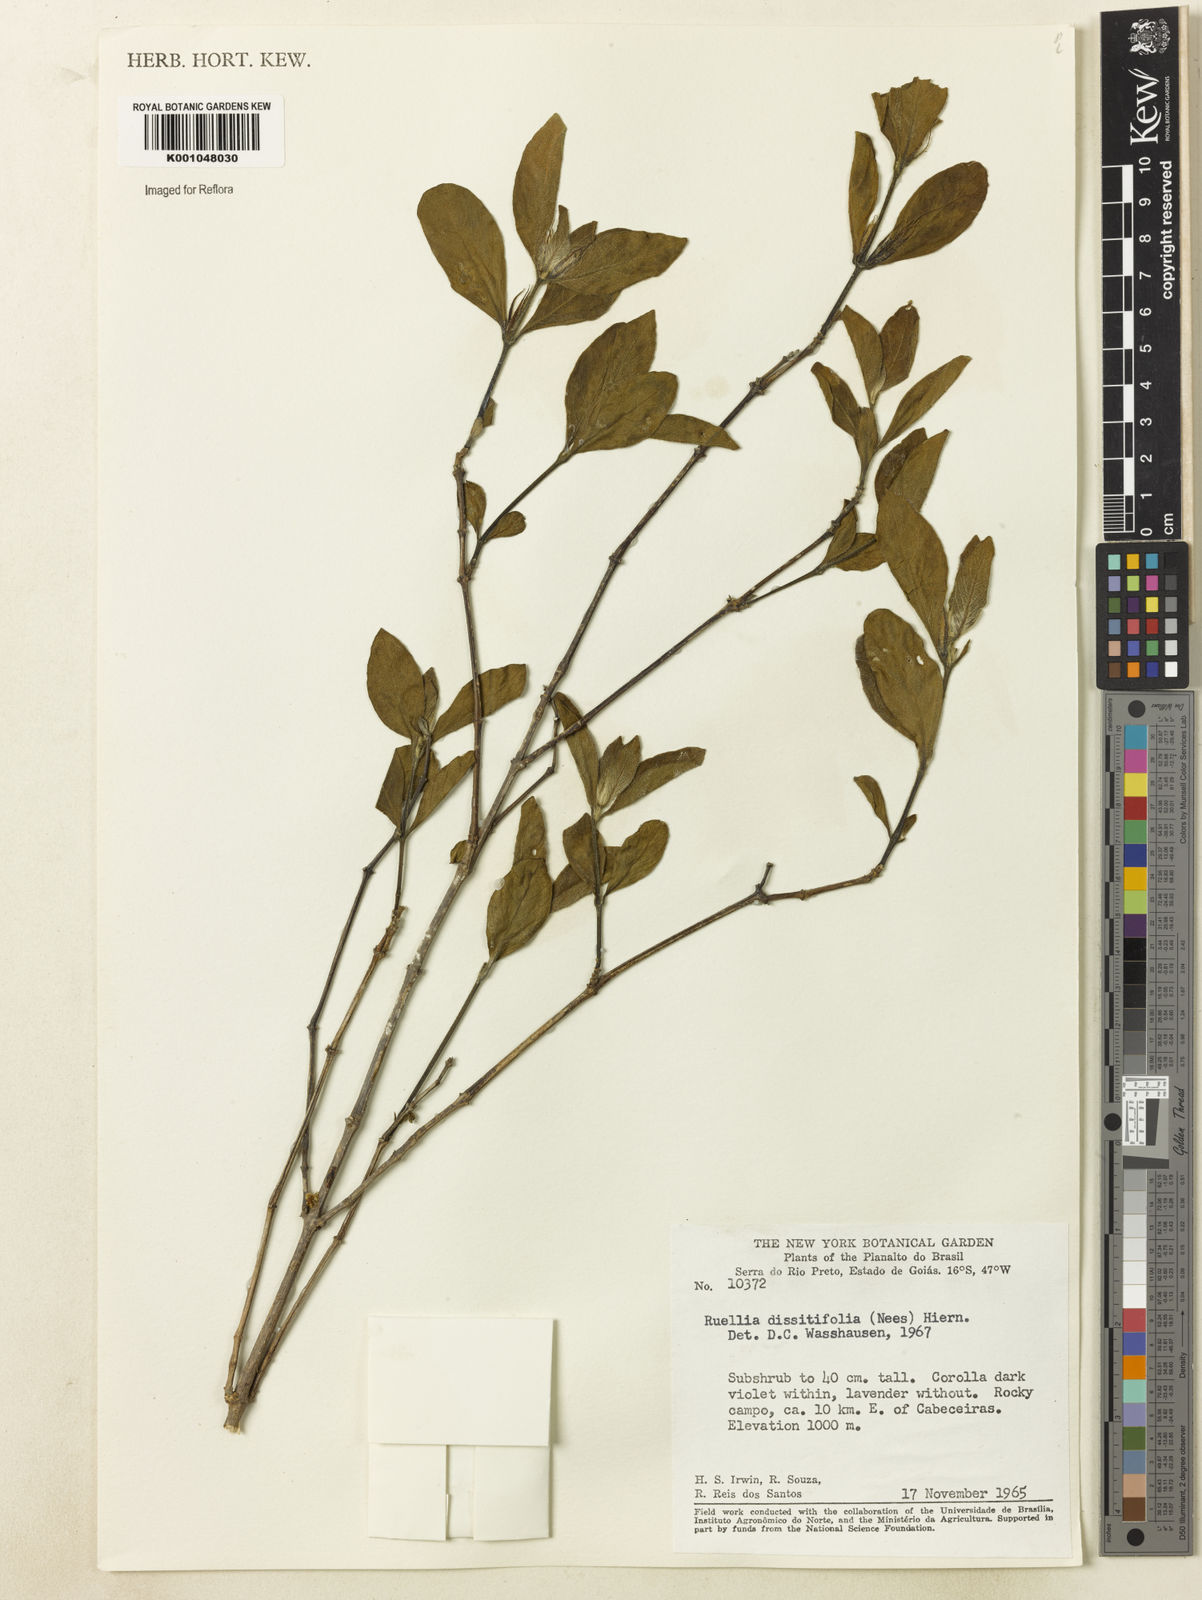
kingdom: Plantae
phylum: Tracheophyta
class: Magnoliopsida
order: Lamiales
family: Acanthaceae
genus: Ruellia
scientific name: Ruellia dissitifolia
